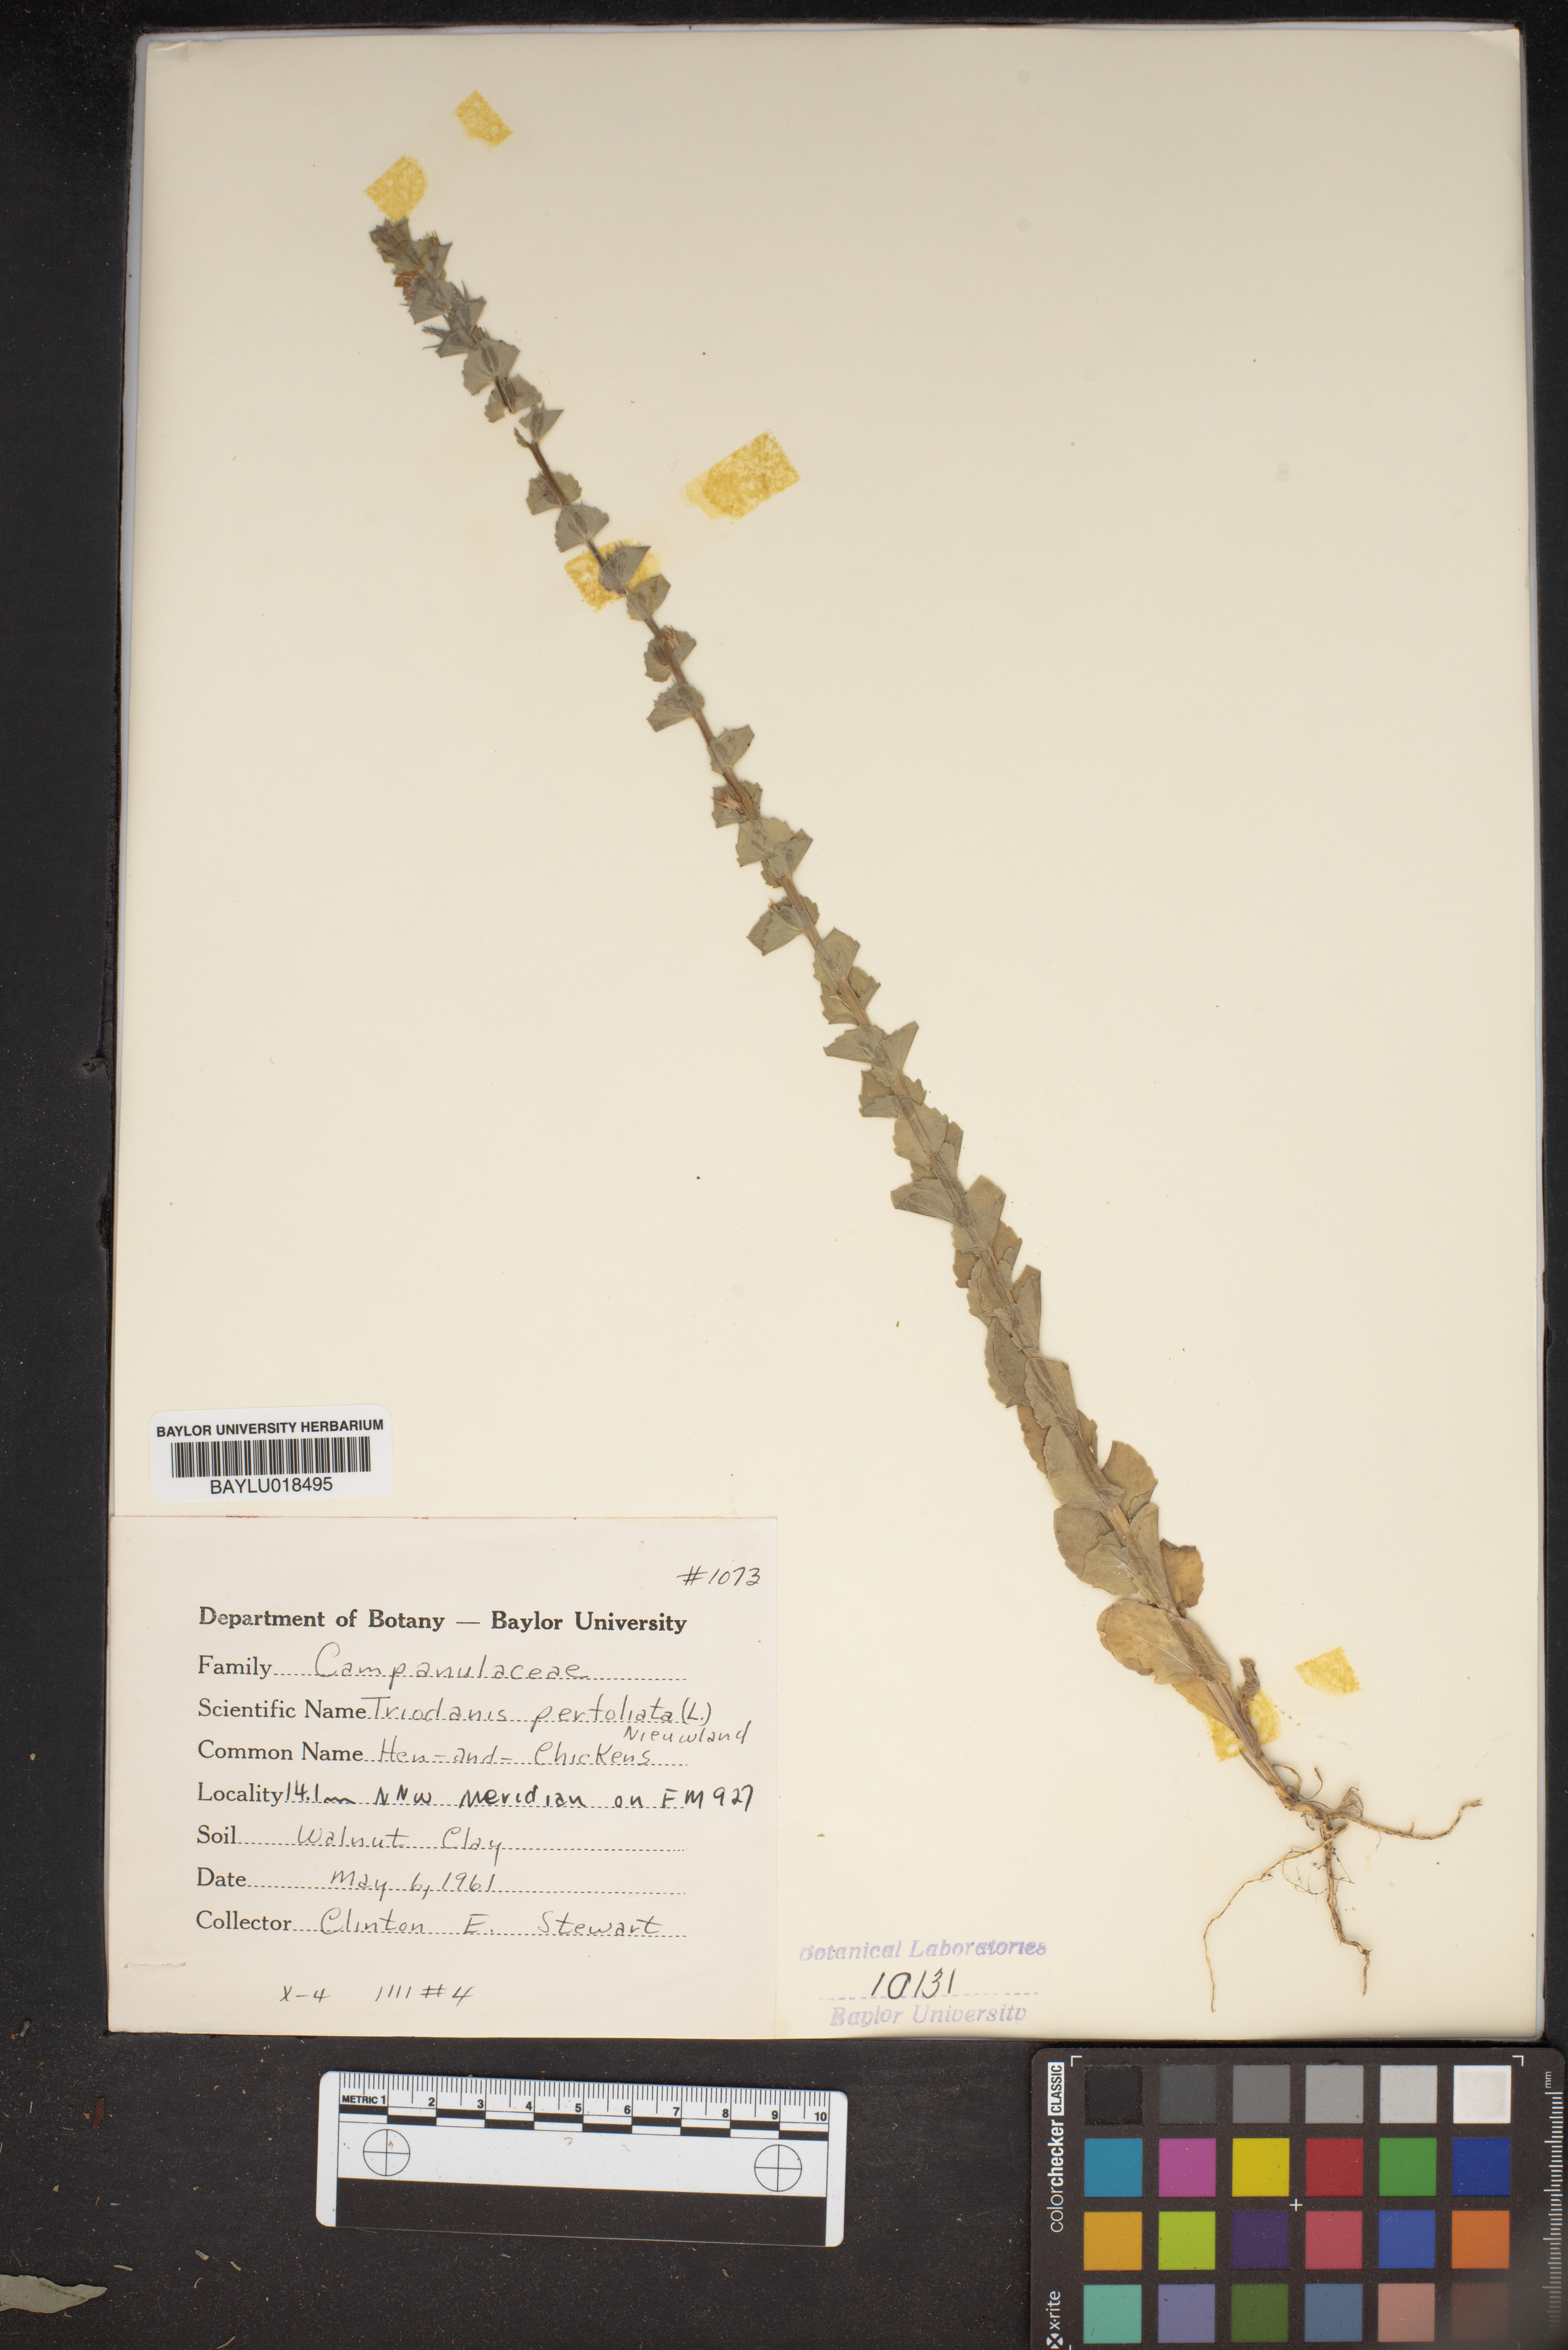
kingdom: Plantae
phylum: Tracheophyta
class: Magnoliopsida
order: Asterales
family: Campanulaceae
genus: Triodanis
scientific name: Triodanis perfoliata
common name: Clasping venus' looking-glass
